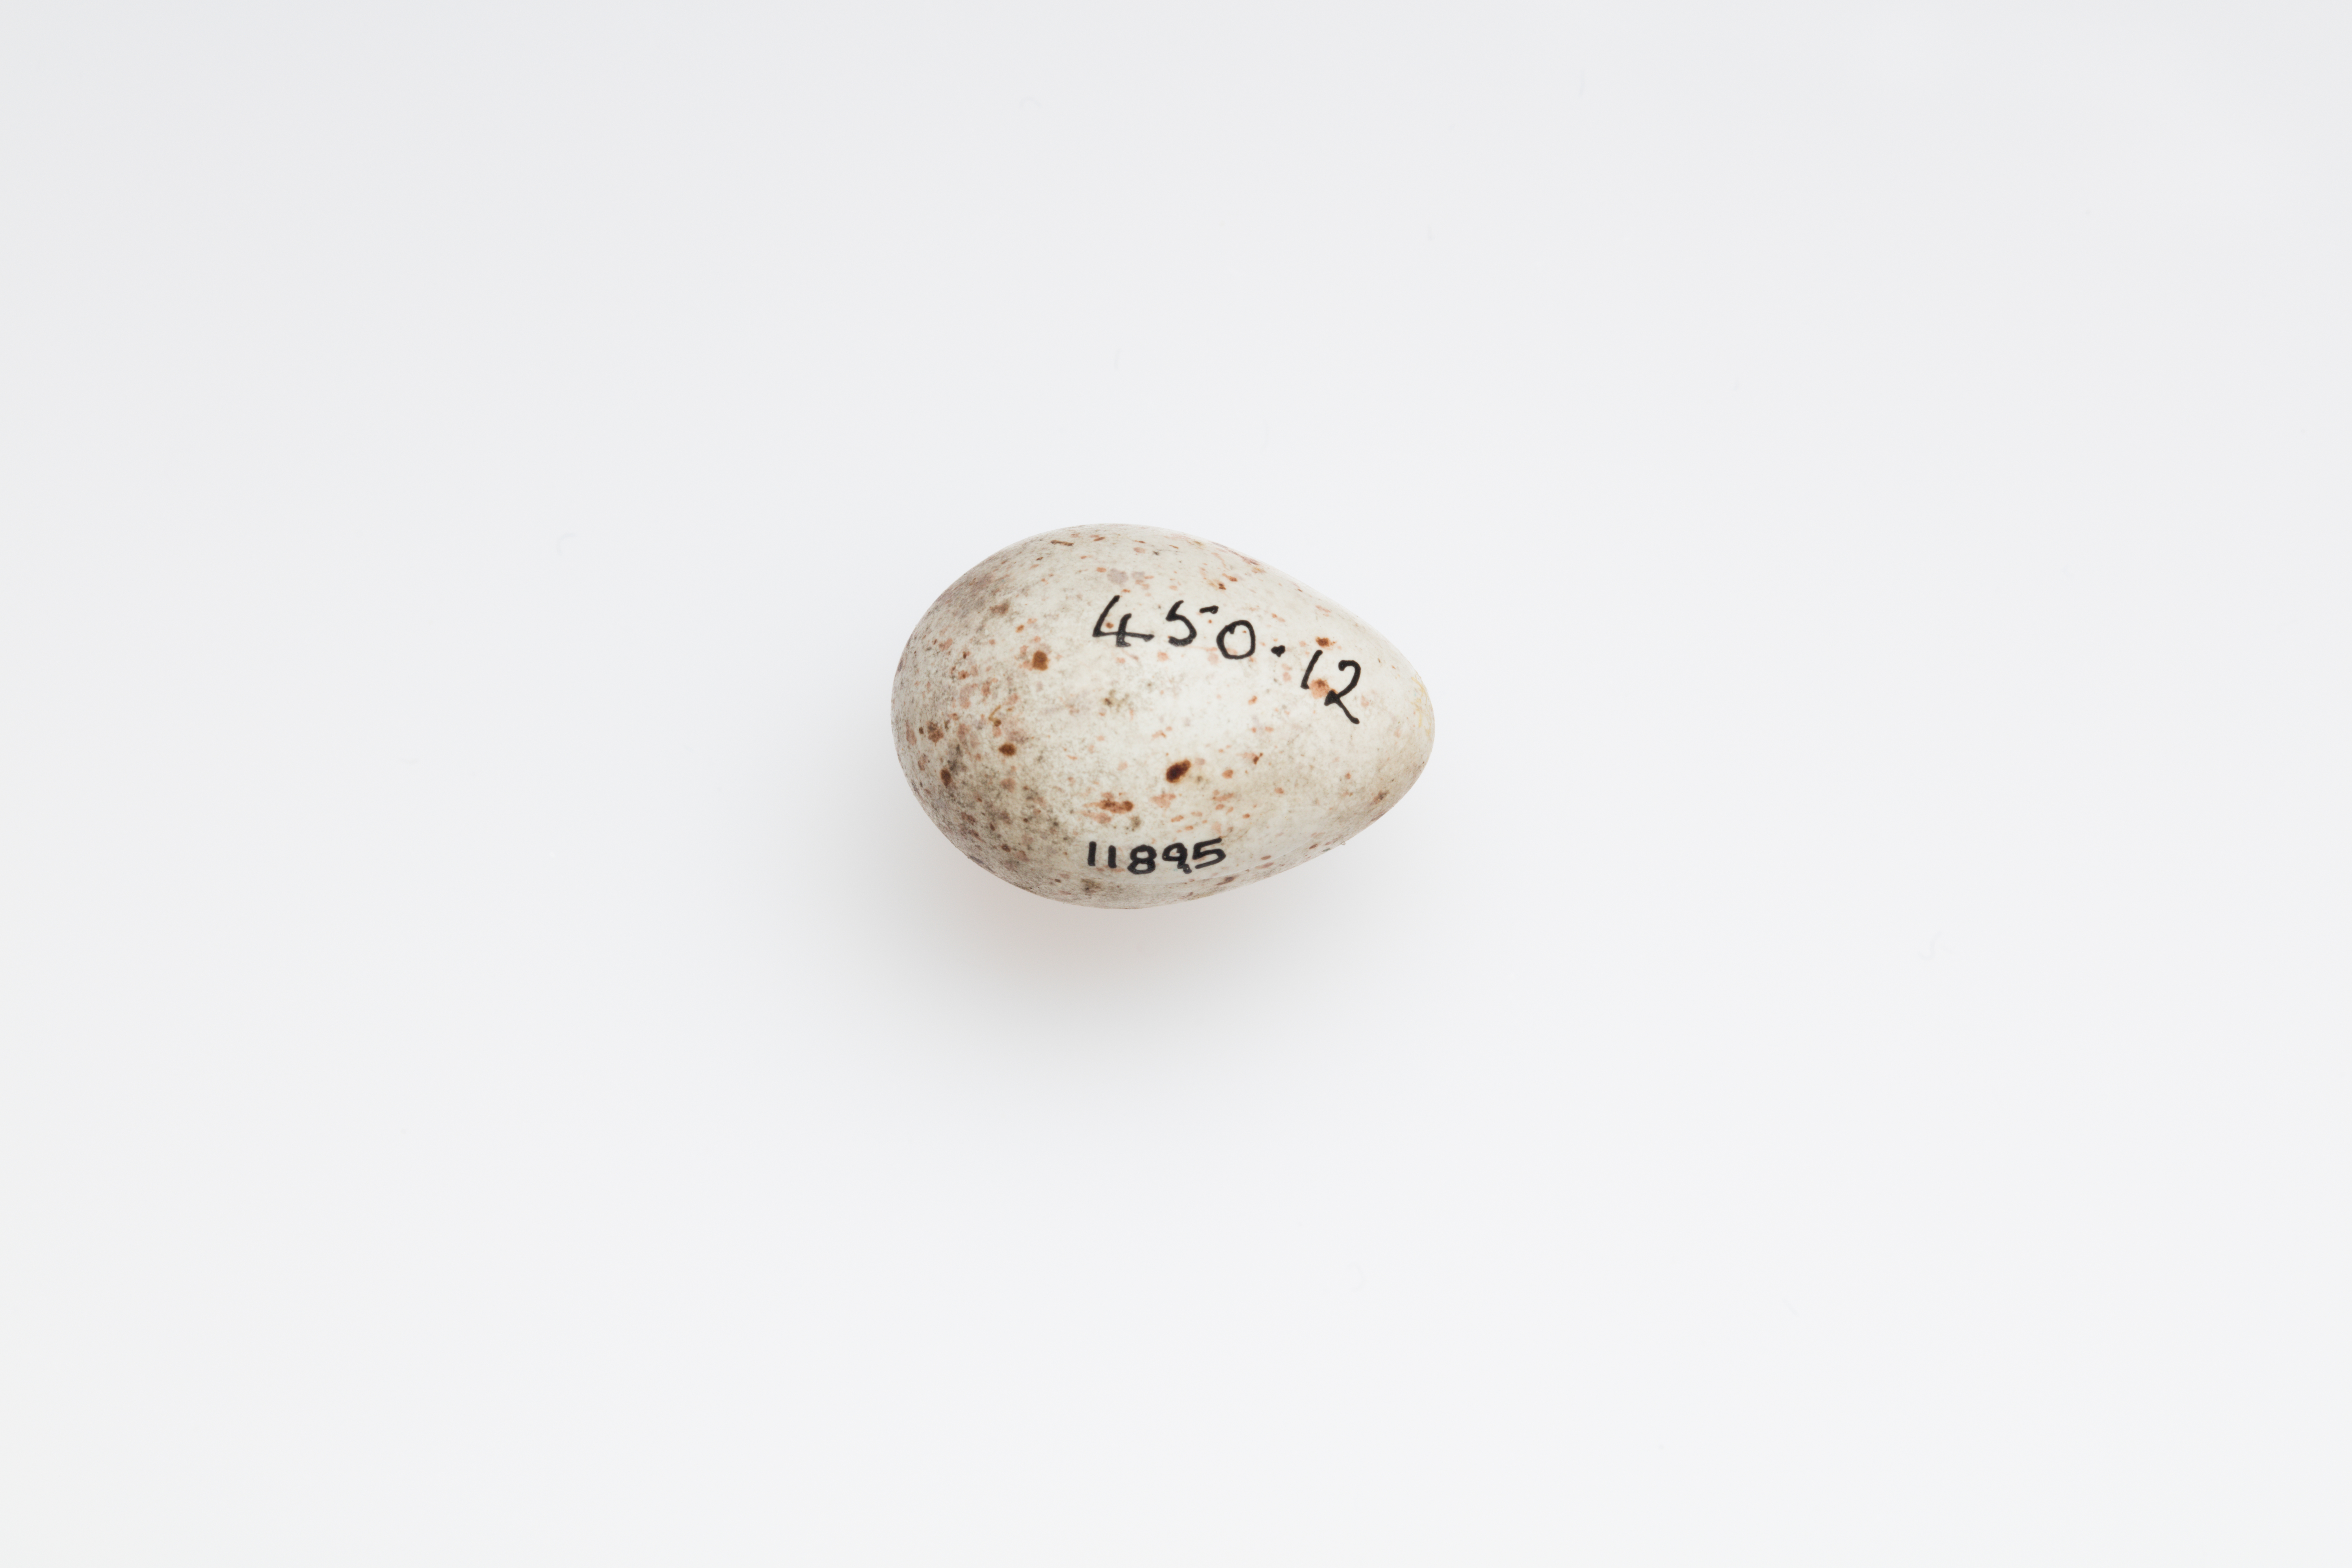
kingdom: Animalia
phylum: Chordata
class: Aves
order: Passeriformes
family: Fringillidae
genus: Linaria
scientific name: Linaria cannabina
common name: Common linnet
